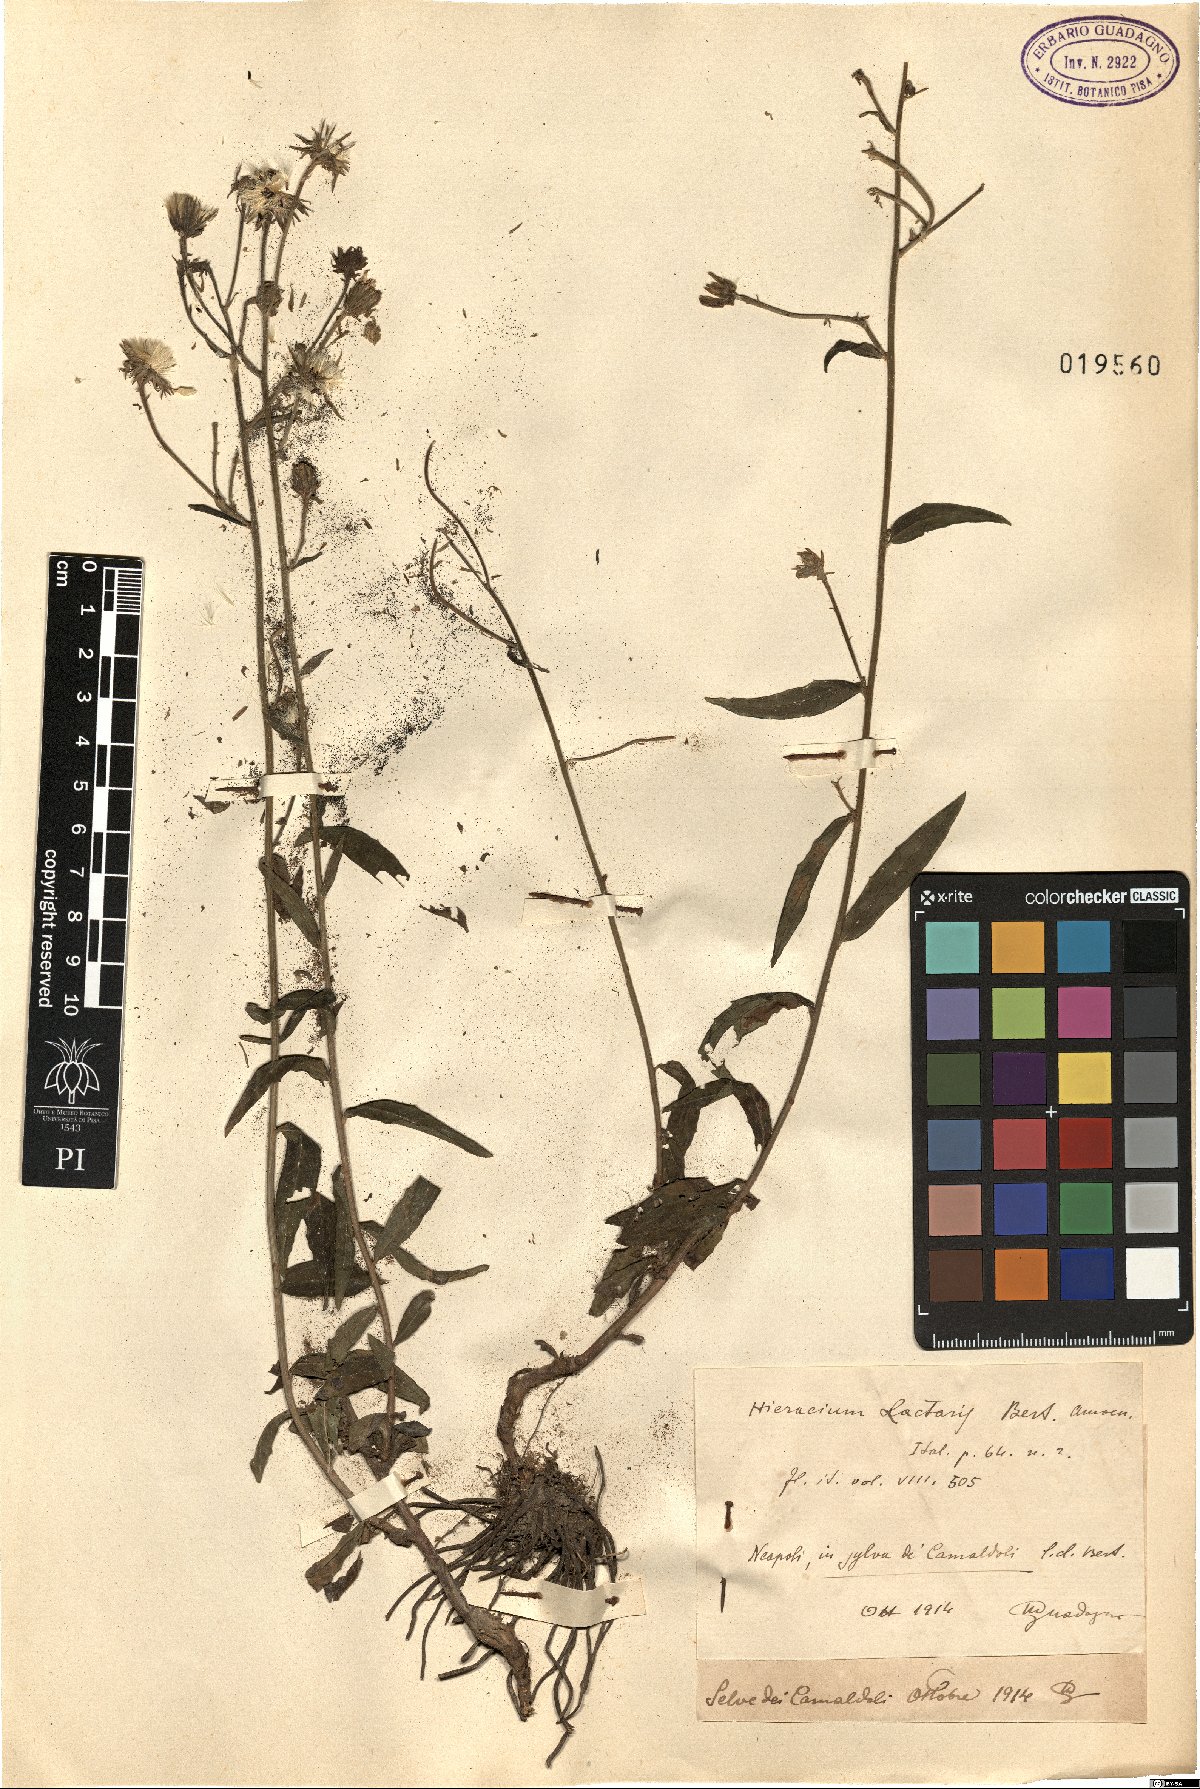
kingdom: Plantae
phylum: Tracheophyta
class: Magnoliopsida
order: Asterales
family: Asteraceae
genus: Hieracium
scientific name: Hieracium umbellatum
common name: Northern hawkweed
